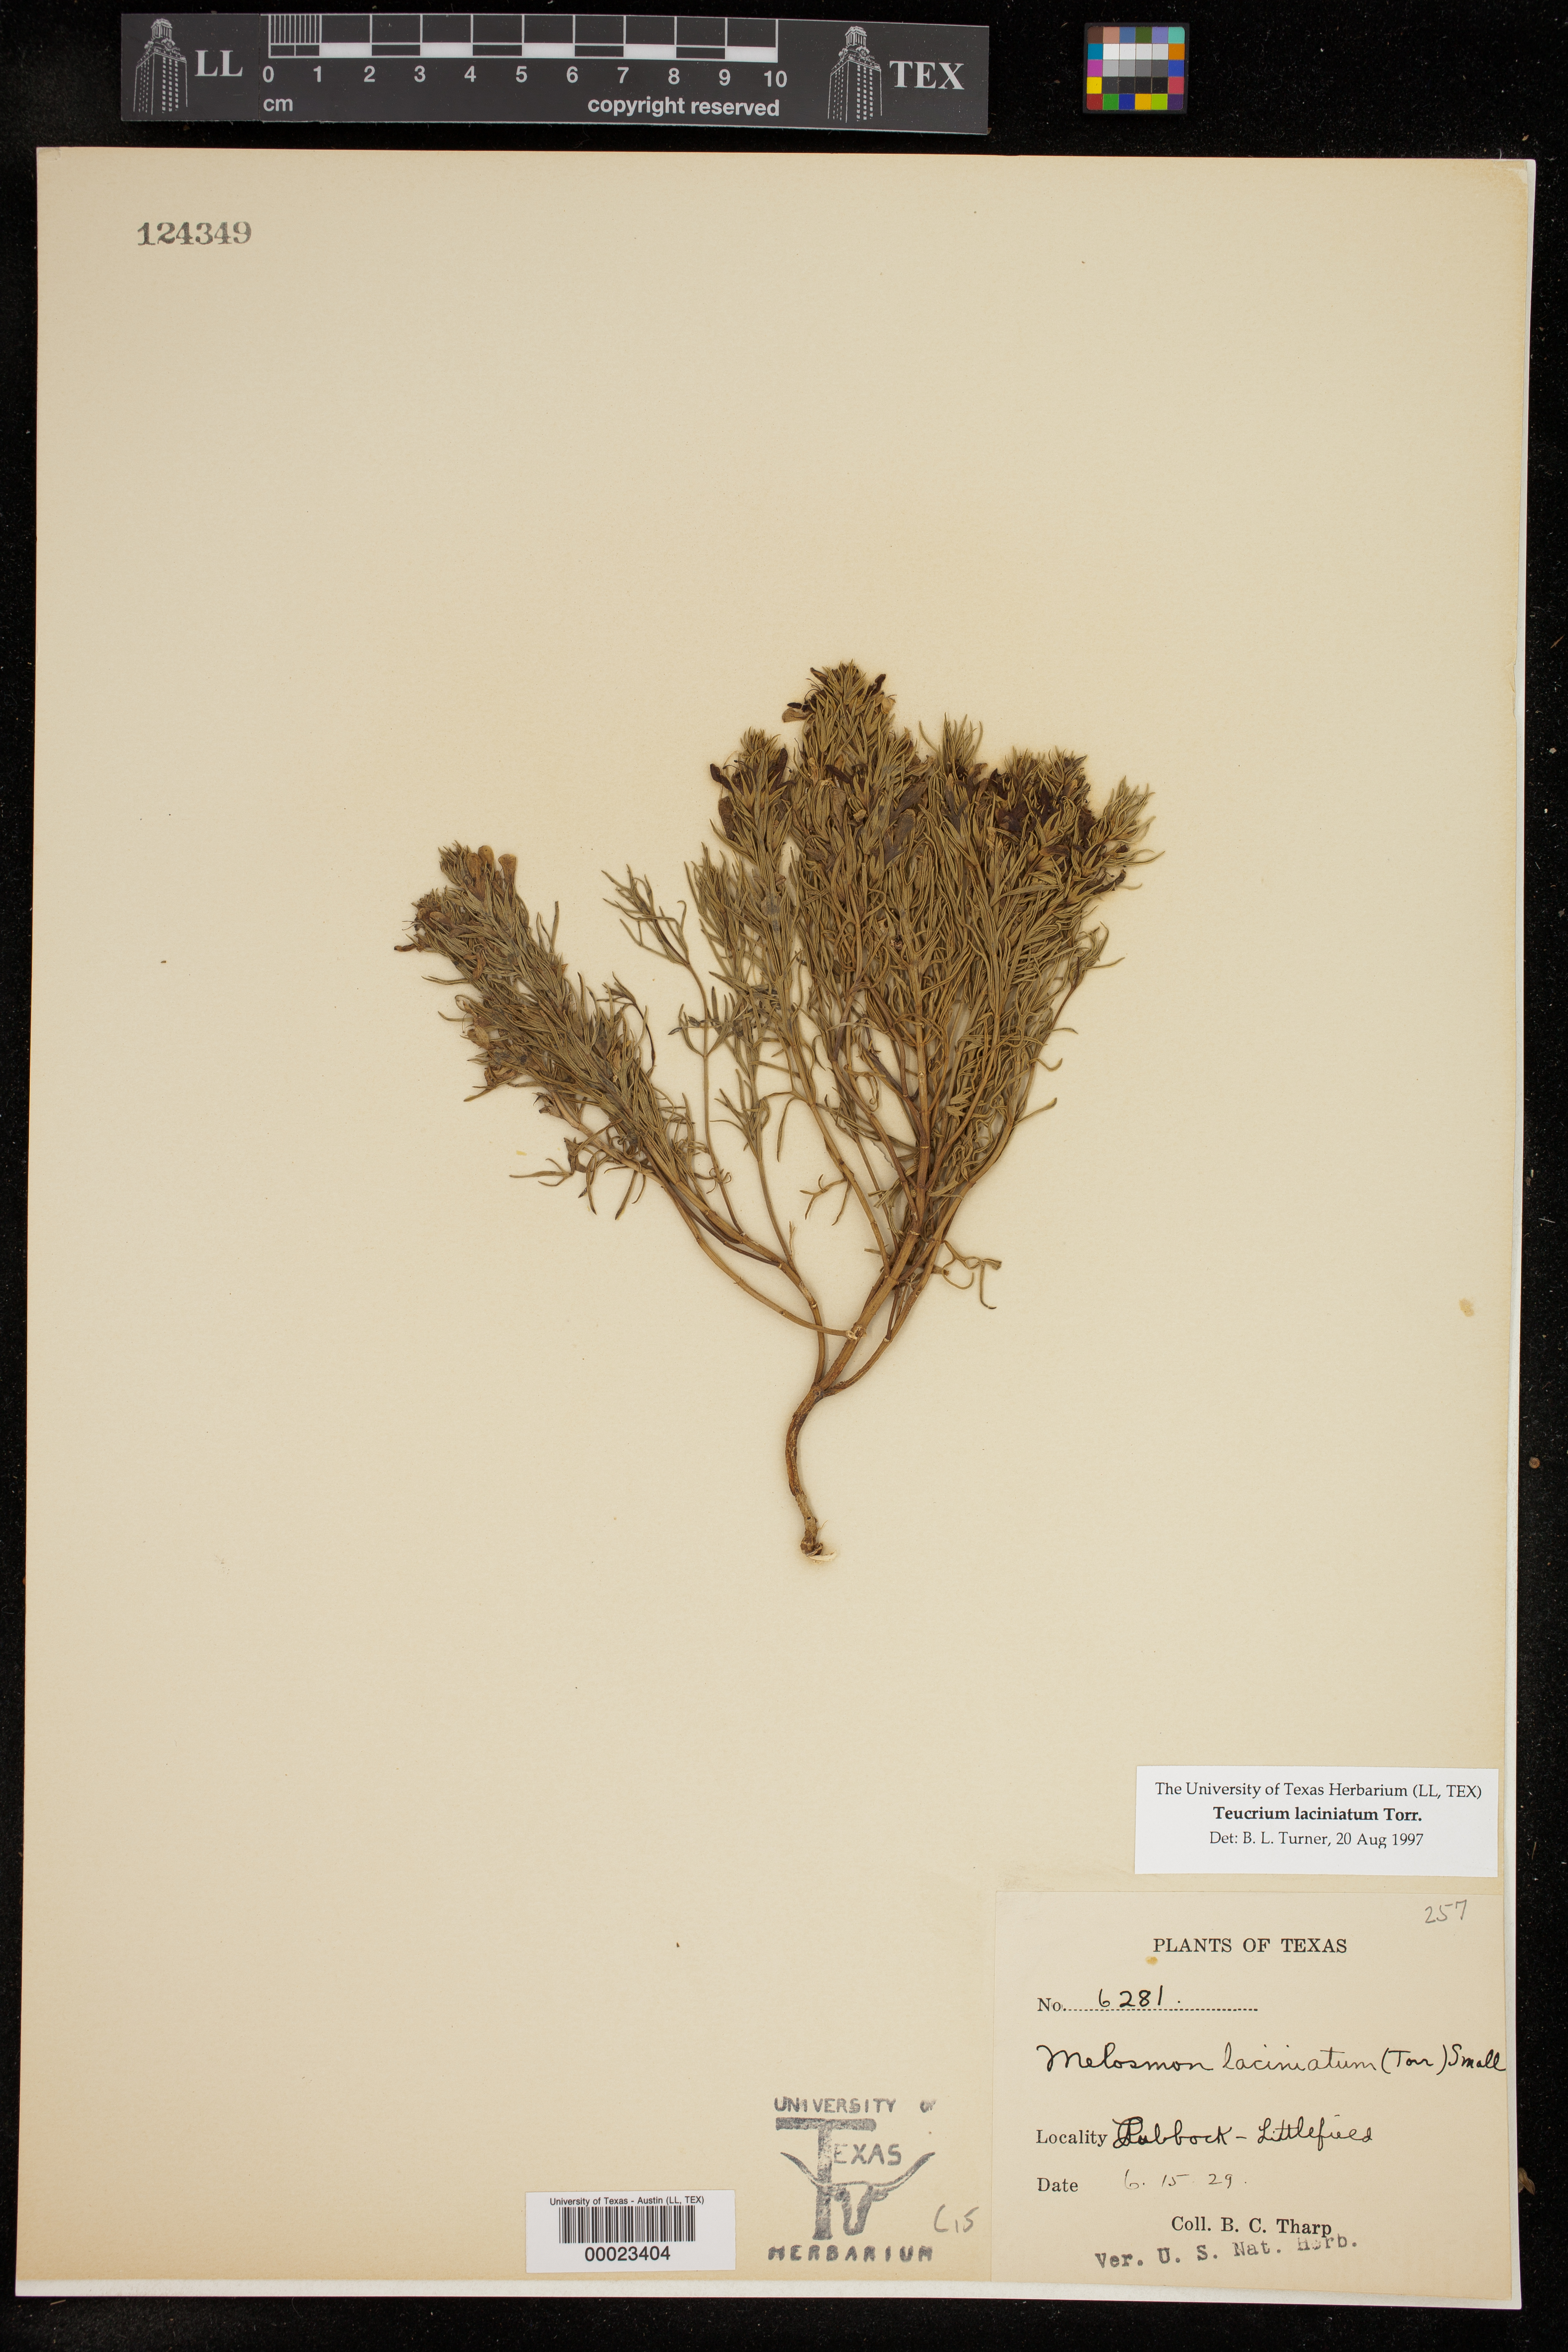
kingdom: Plantae
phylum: Tracheophyta
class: Magnoliopsida
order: Lamiales
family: Lamiaceae
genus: Teucrium
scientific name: Teucrium laciniatum
